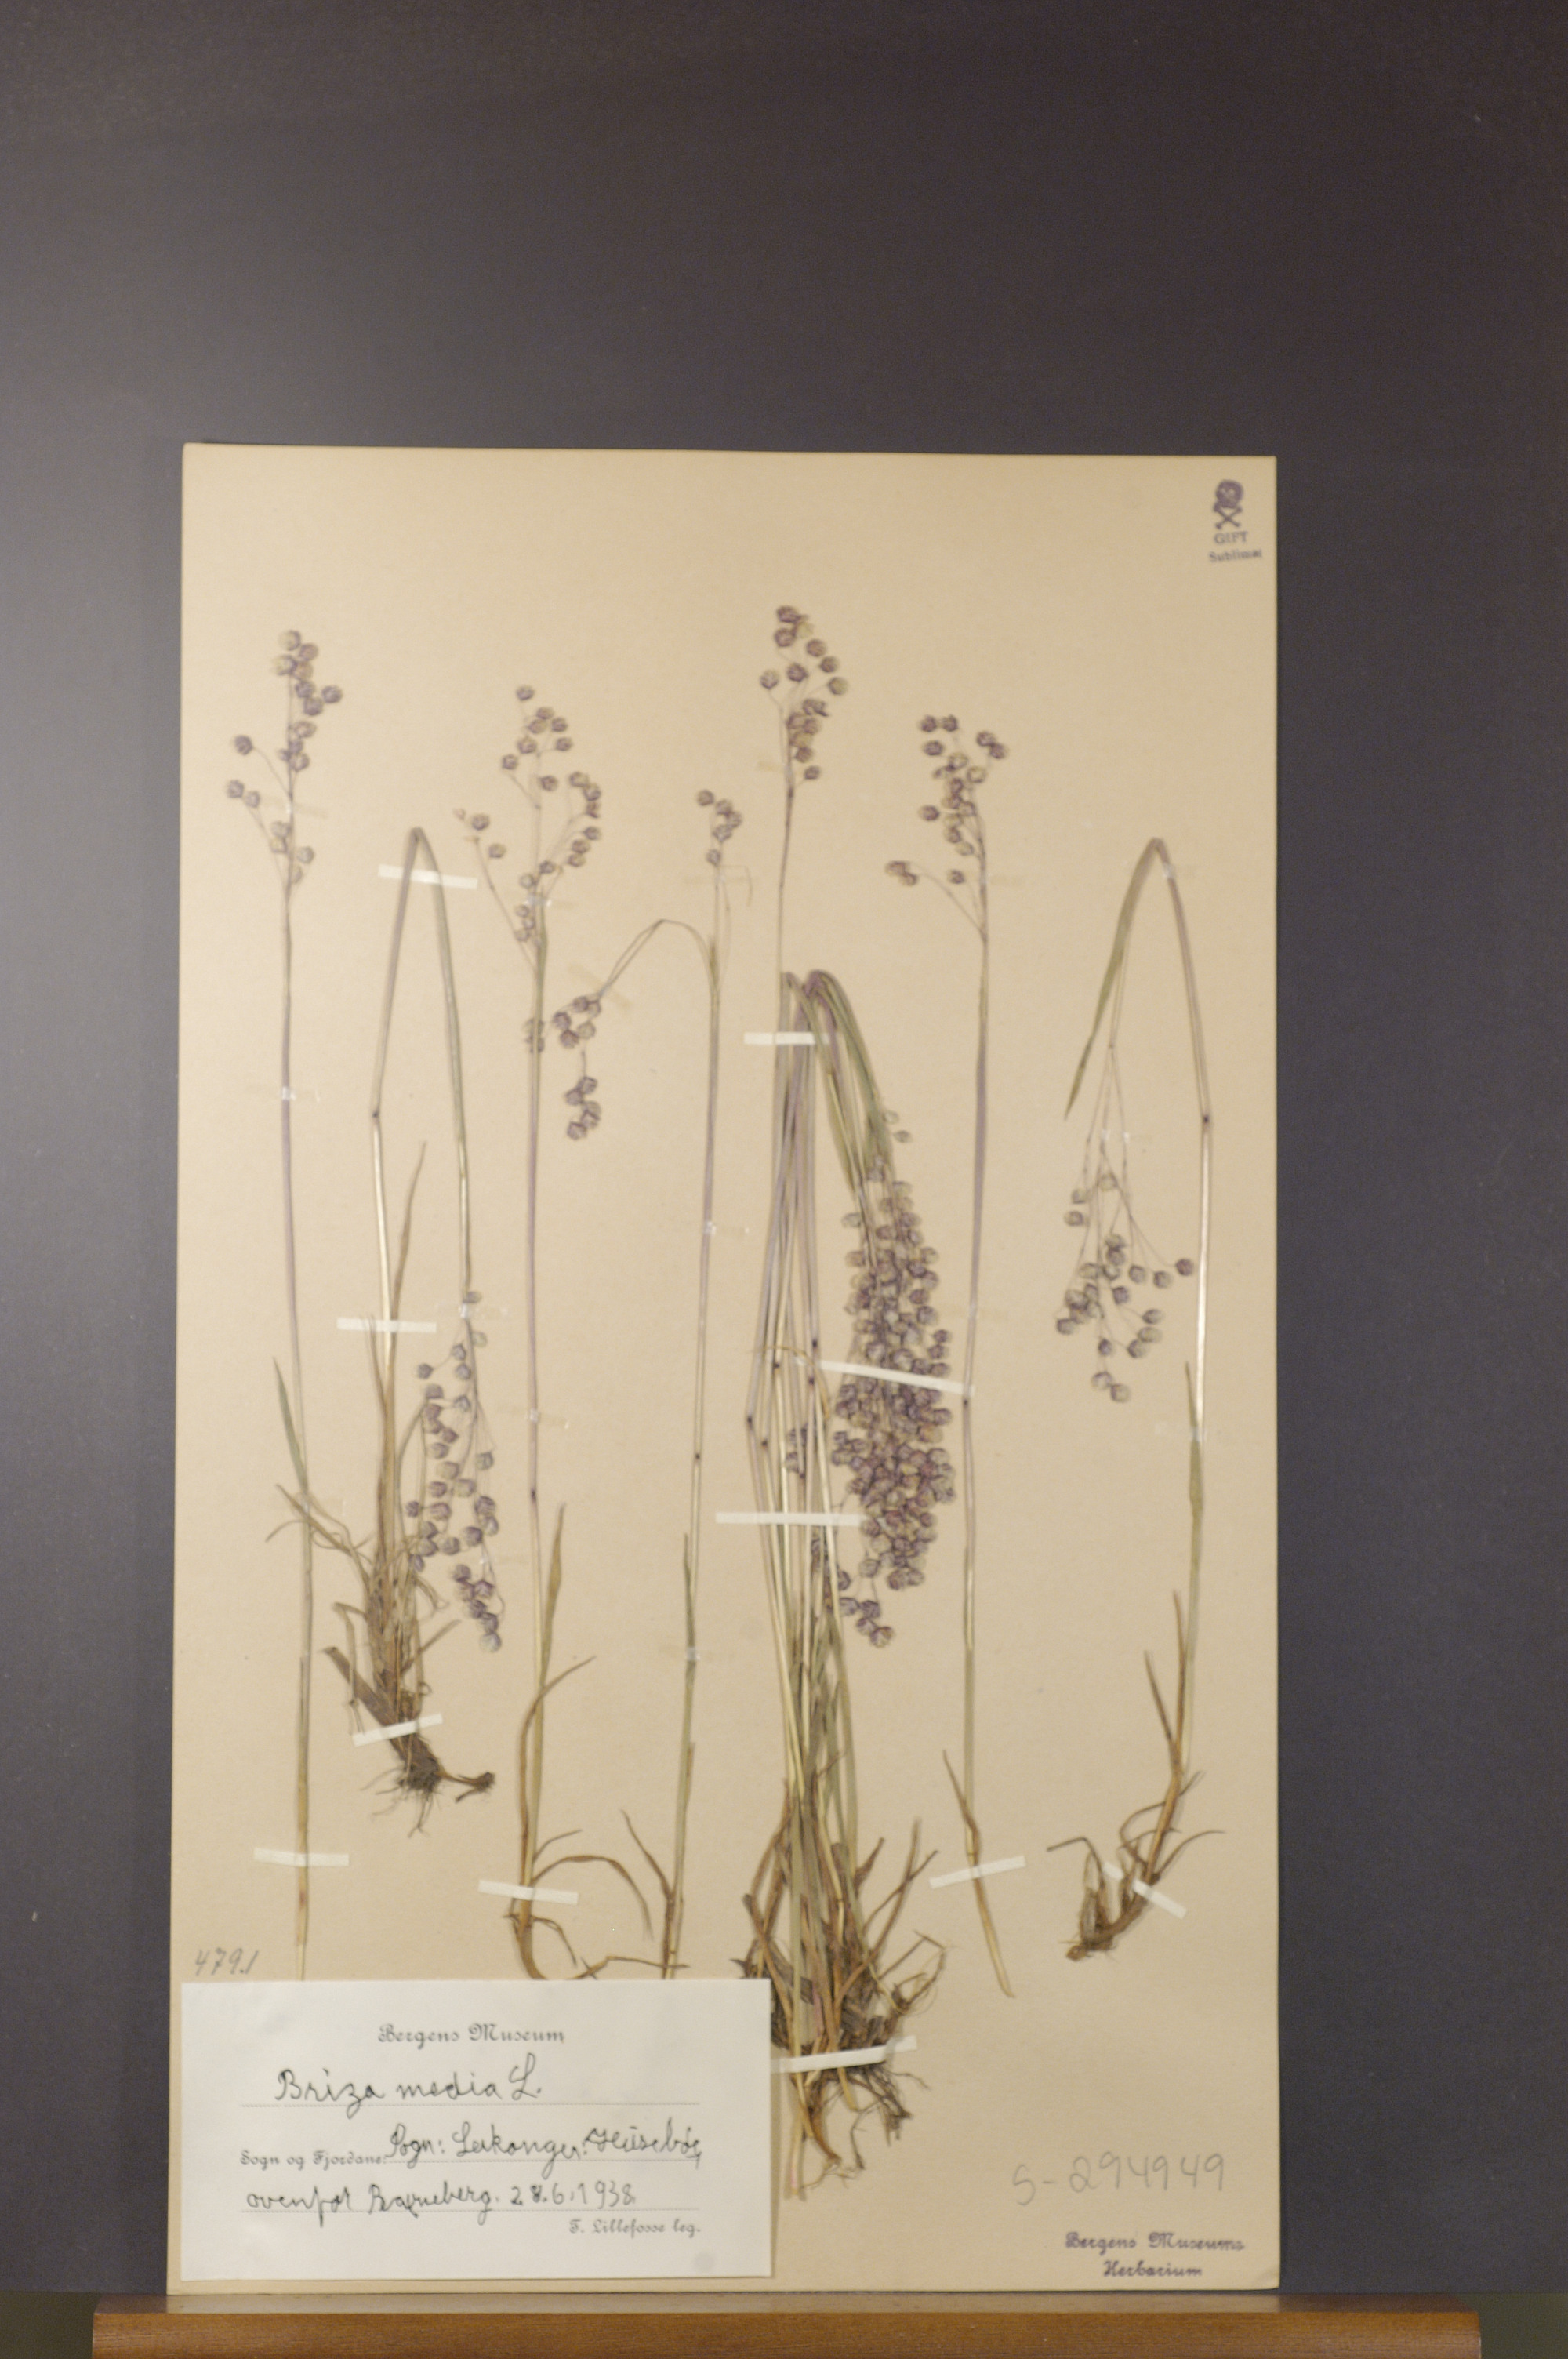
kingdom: Plantae
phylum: Tracheophyta
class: Liliopsida
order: Poales
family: Poaceae
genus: Briza
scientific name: Briza media
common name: Quaking grass
